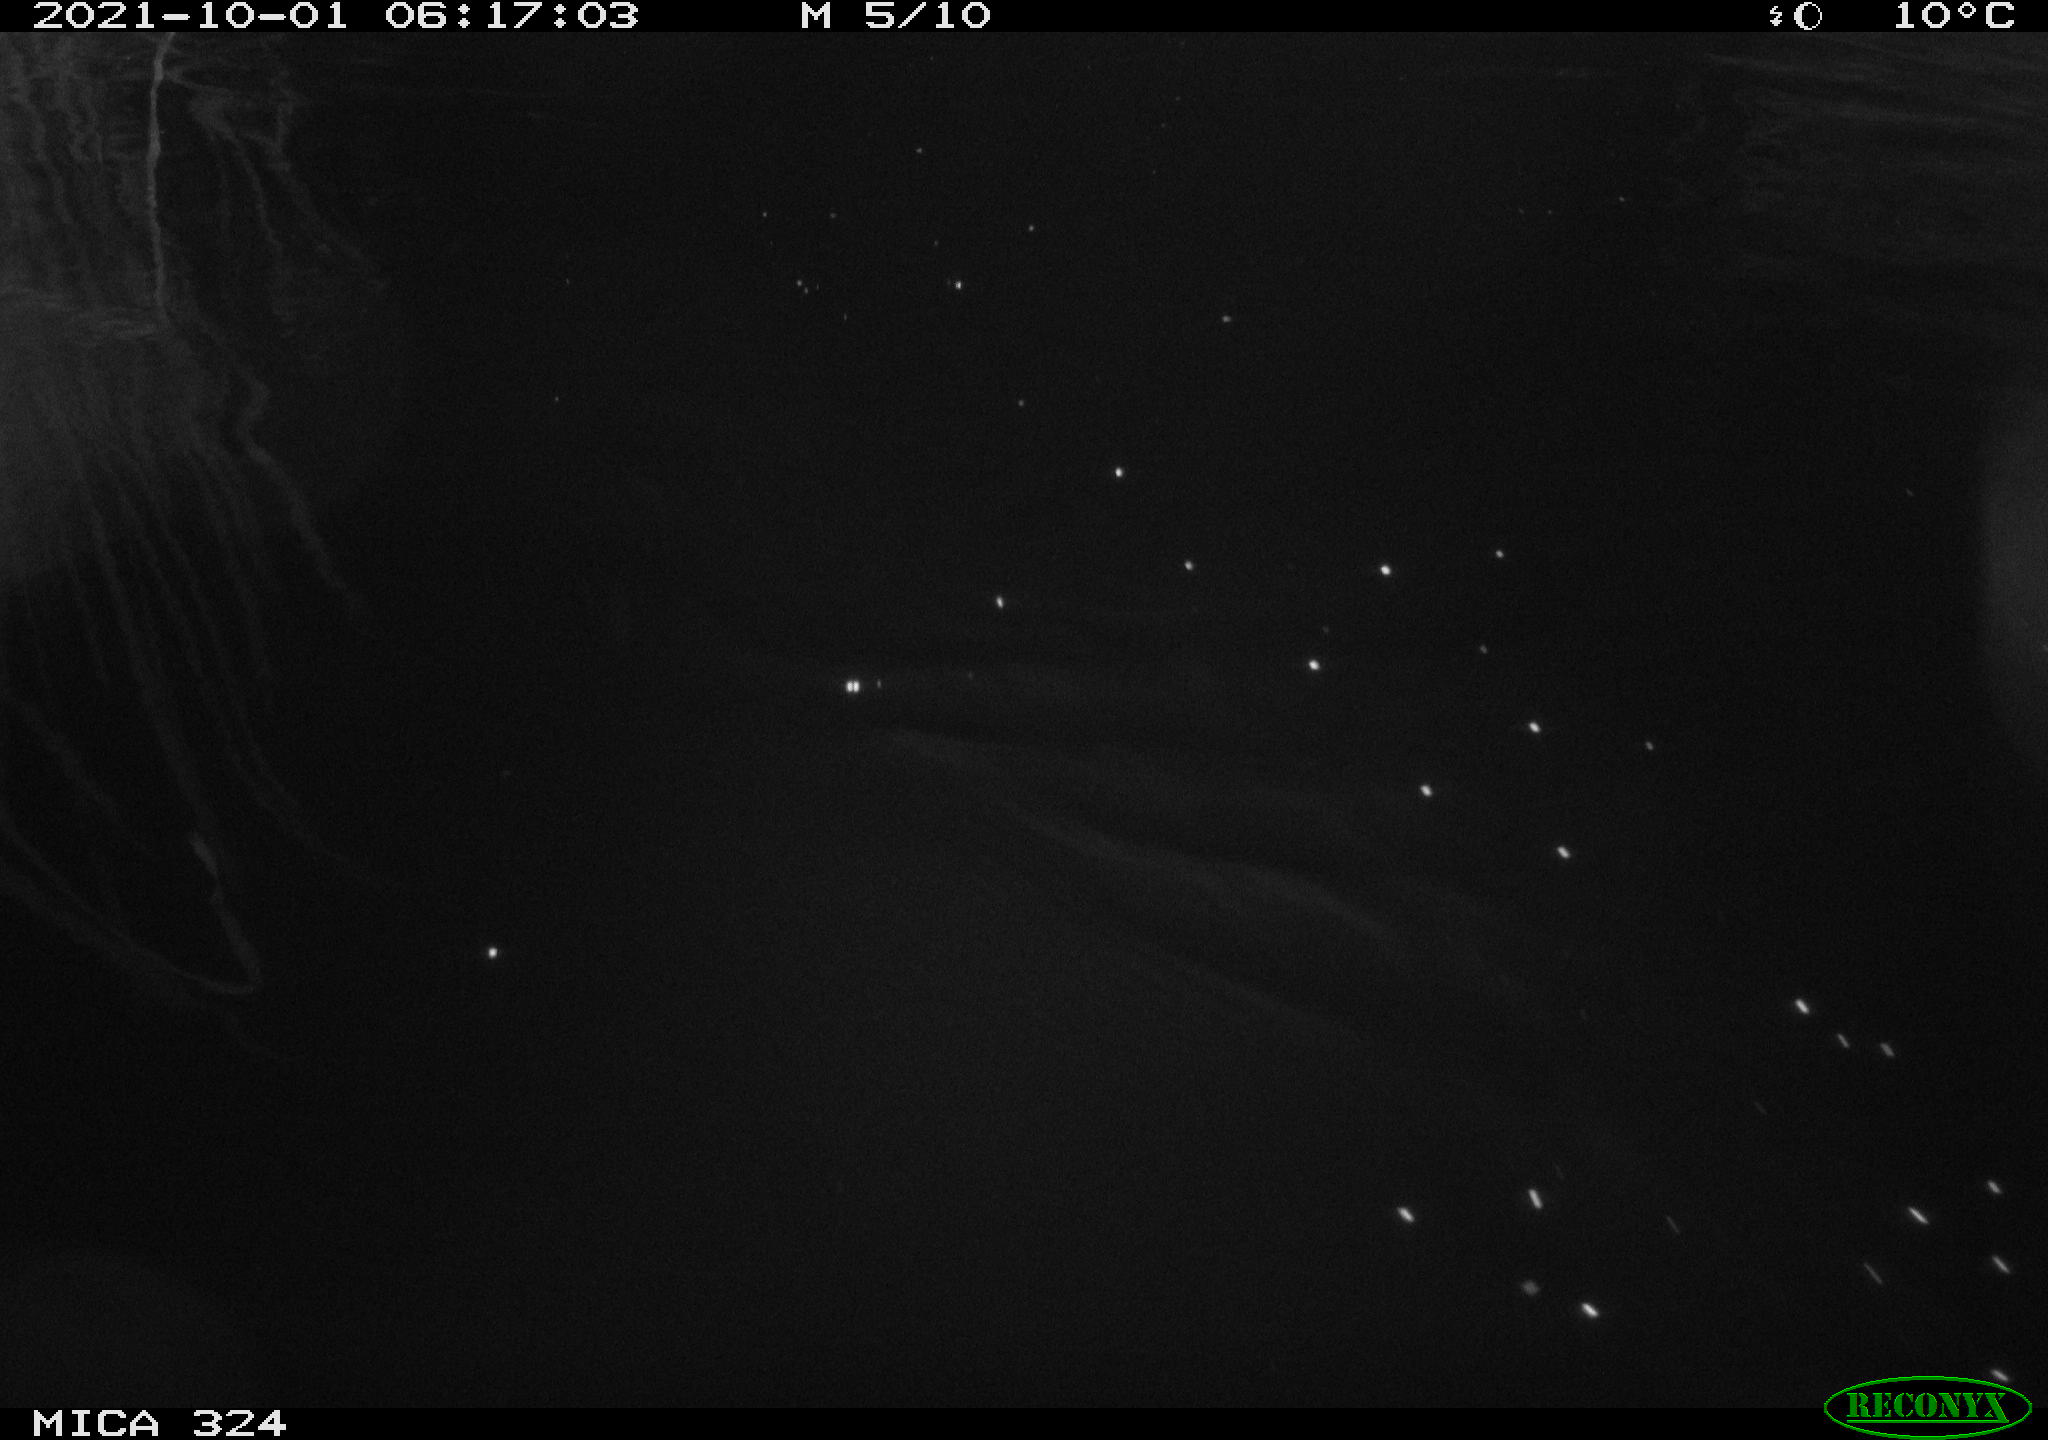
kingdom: Animalia
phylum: Chordata
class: Mammalia
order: Rodentia
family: Cricetidae
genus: Ondatra
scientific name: Ondatra zibethicus
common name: Muskrat
